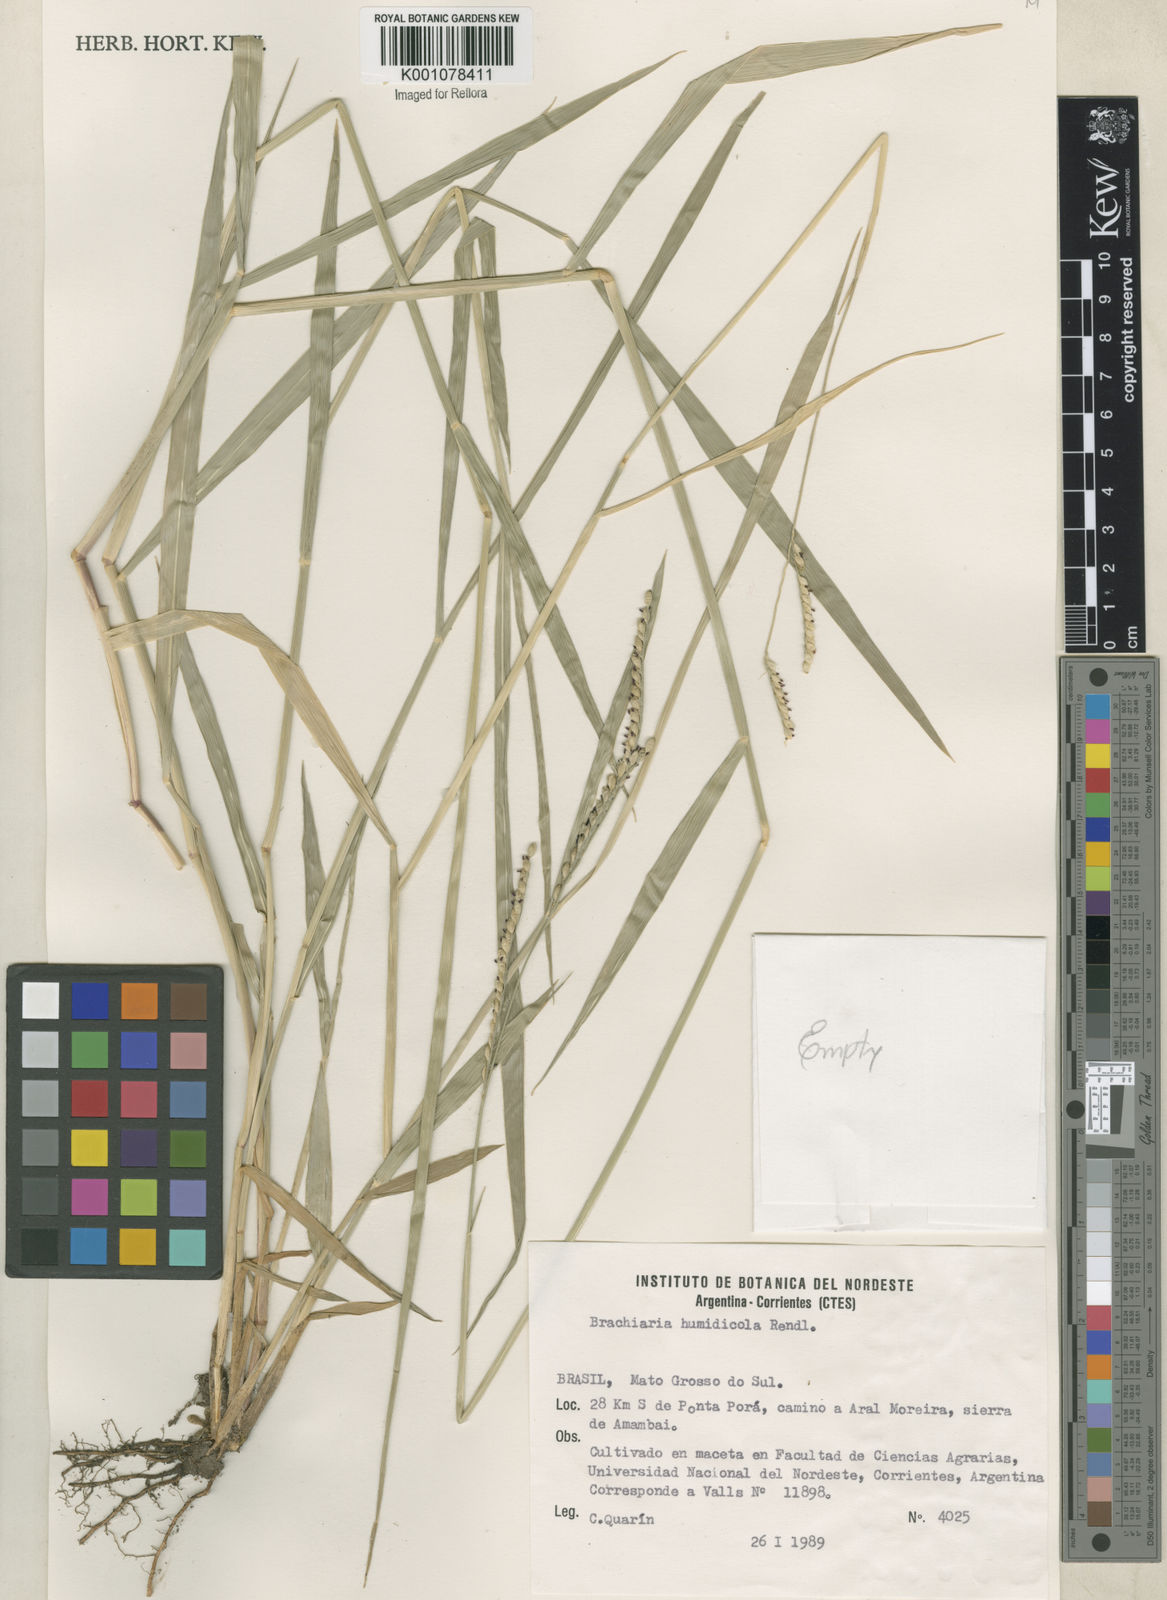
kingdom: Plantae
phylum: Tracheophyta
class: Liliopsida
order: Poales
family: Poaceae
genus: Urochloa
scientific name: Urochloa dictyoneura
